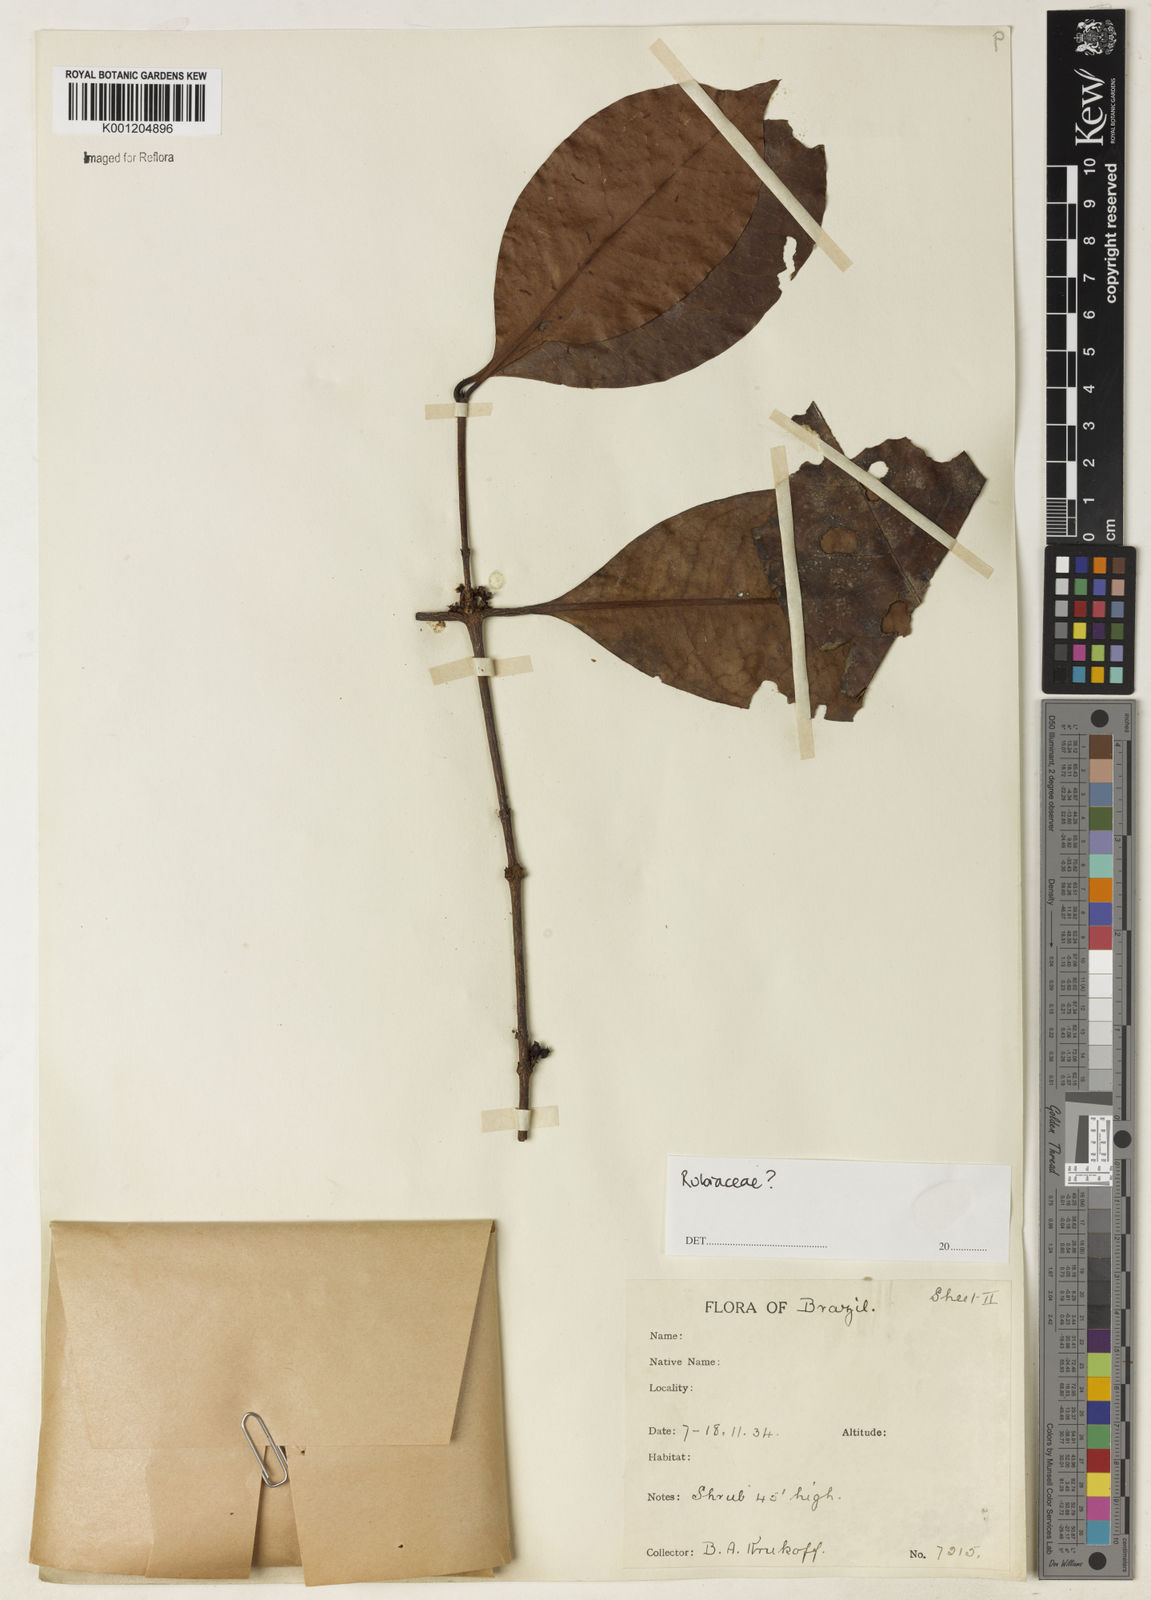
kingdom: Plantae
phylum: Tracheophyta
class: Magnoliopsida
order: Gentianales
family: Rubiaceae
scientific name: Rubiaceae
